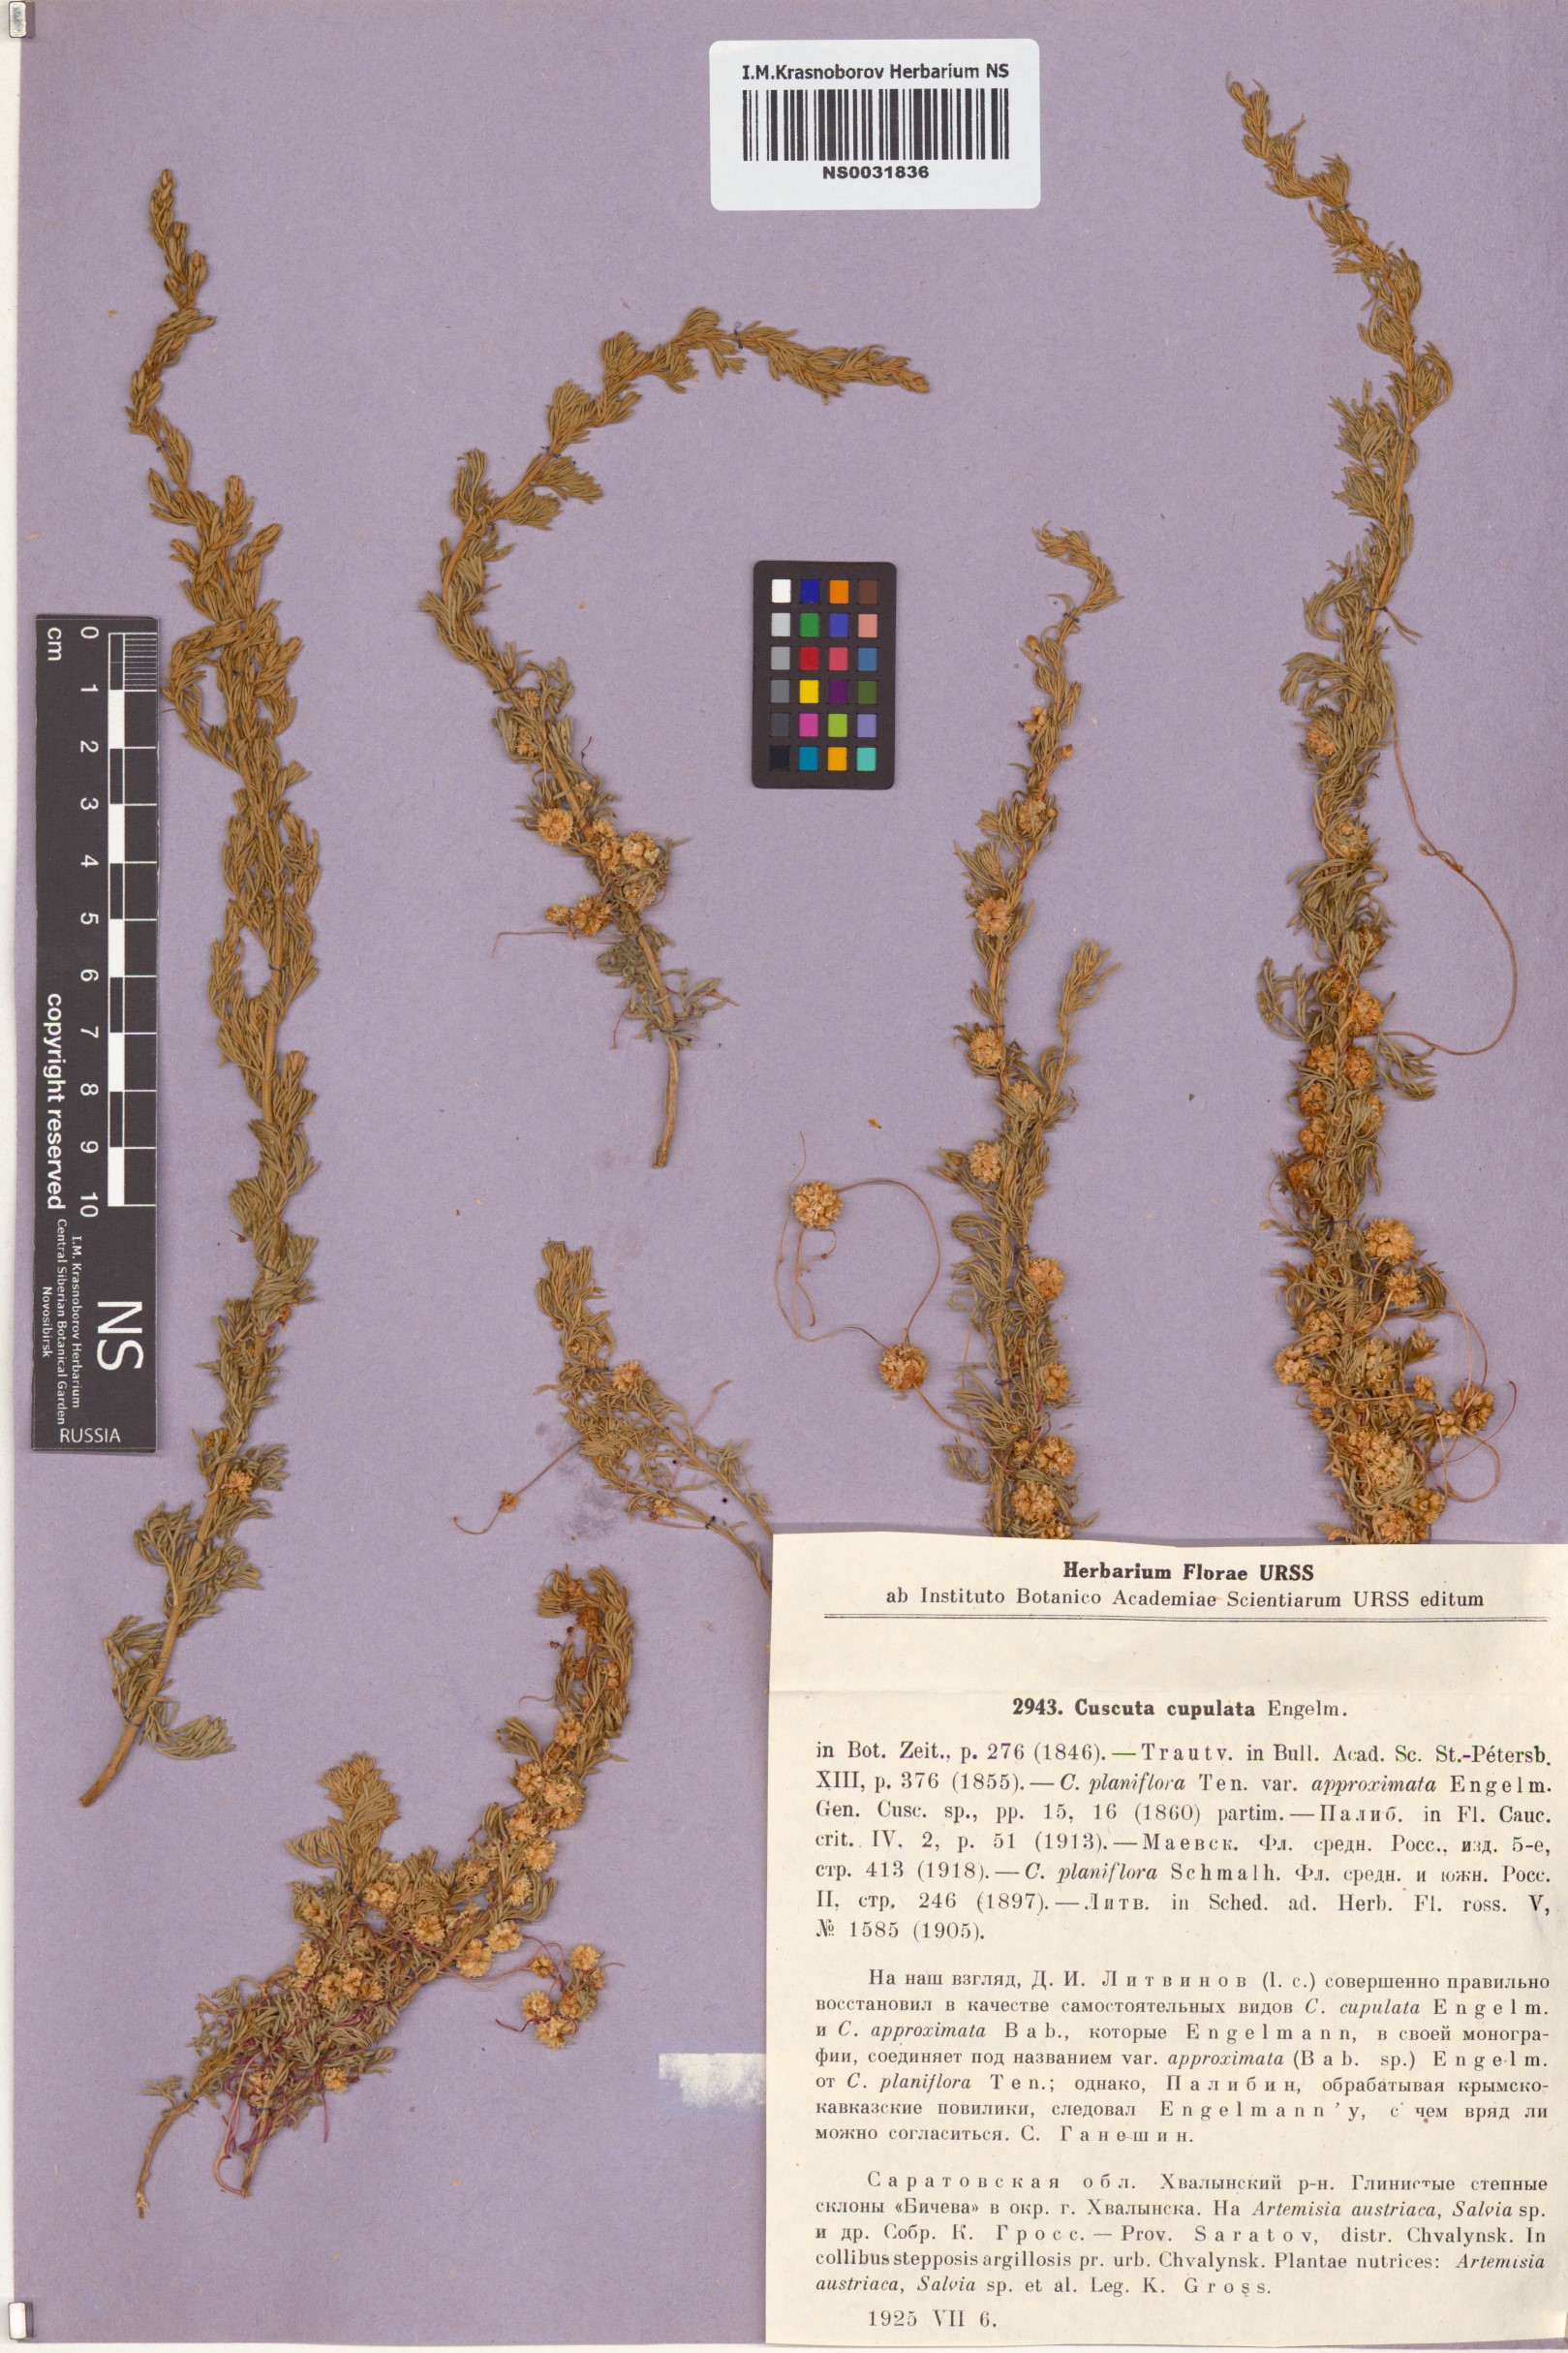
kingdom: Plantae
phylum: Tracheophyta
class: Magnoliopsida
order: Solanales
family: Convolvulaceae
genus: Cuscuta
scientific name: Cuscuta approximata
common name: Alfalfa dodder
